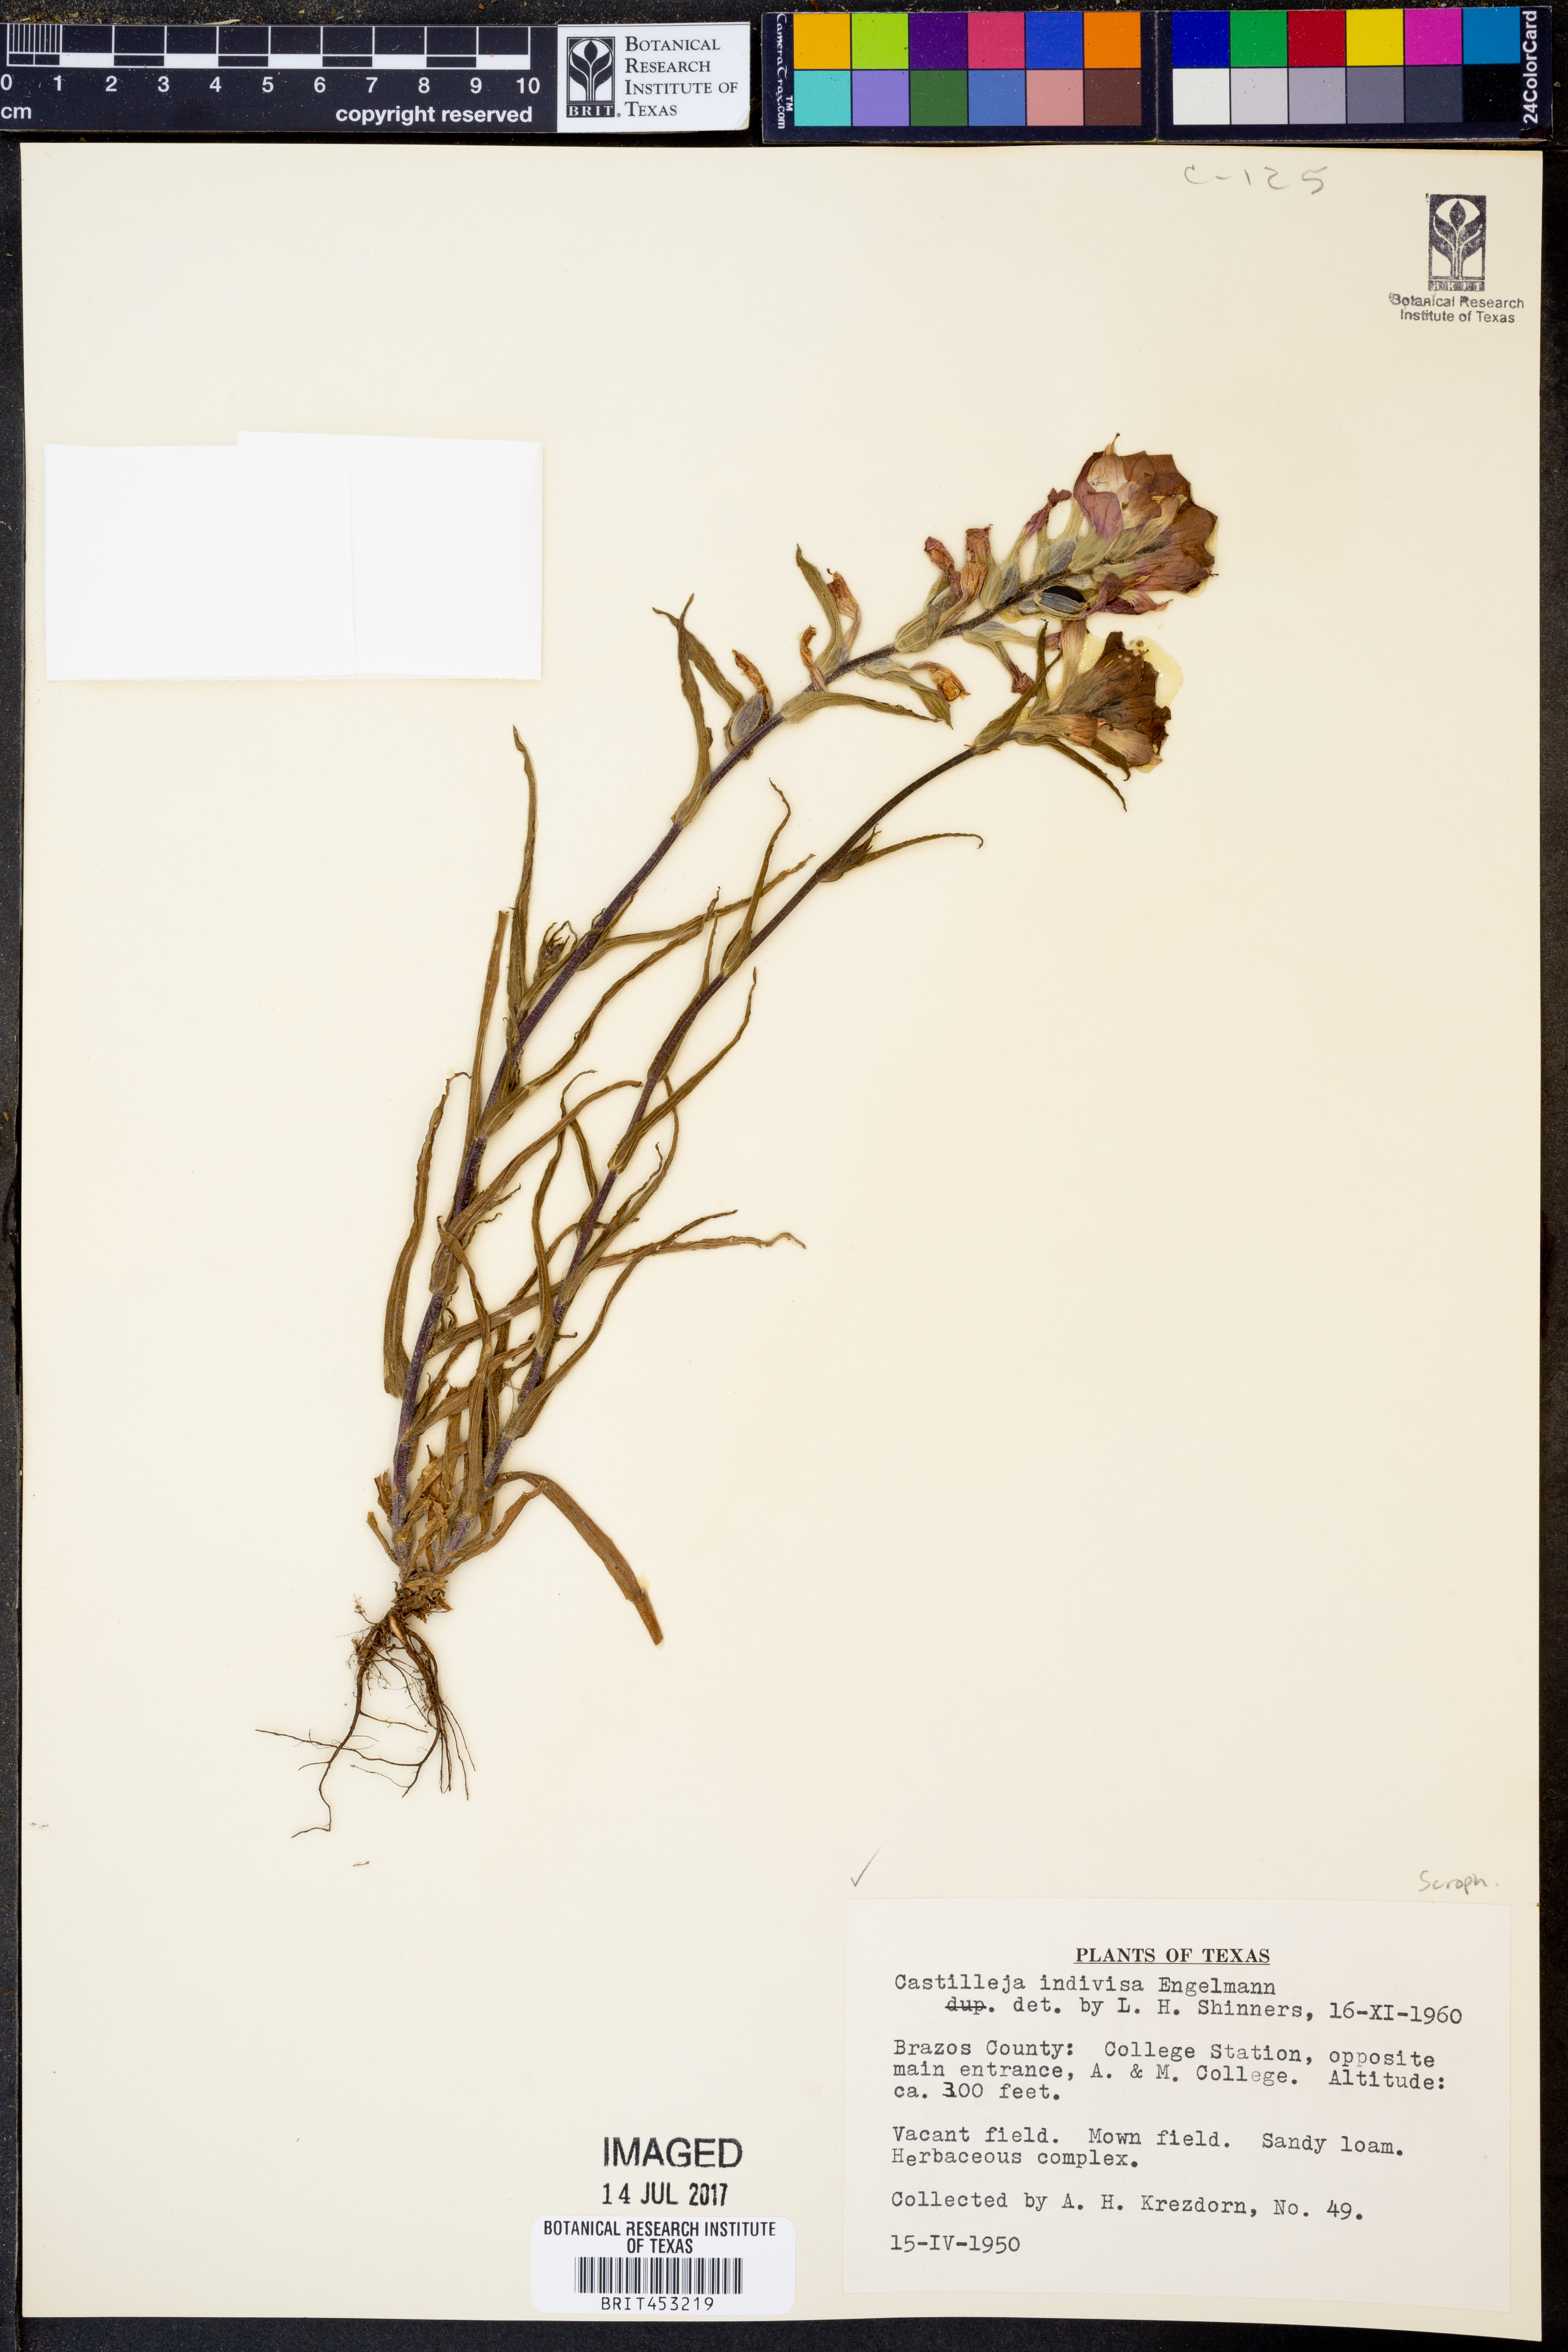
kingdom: Plantae
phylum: Tracheophyta
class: Magnoliopsida
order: Lamiales
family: Orobanchaceae
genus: Castilleja
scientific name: Castilleja indivisa
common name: Texas paintbrush
